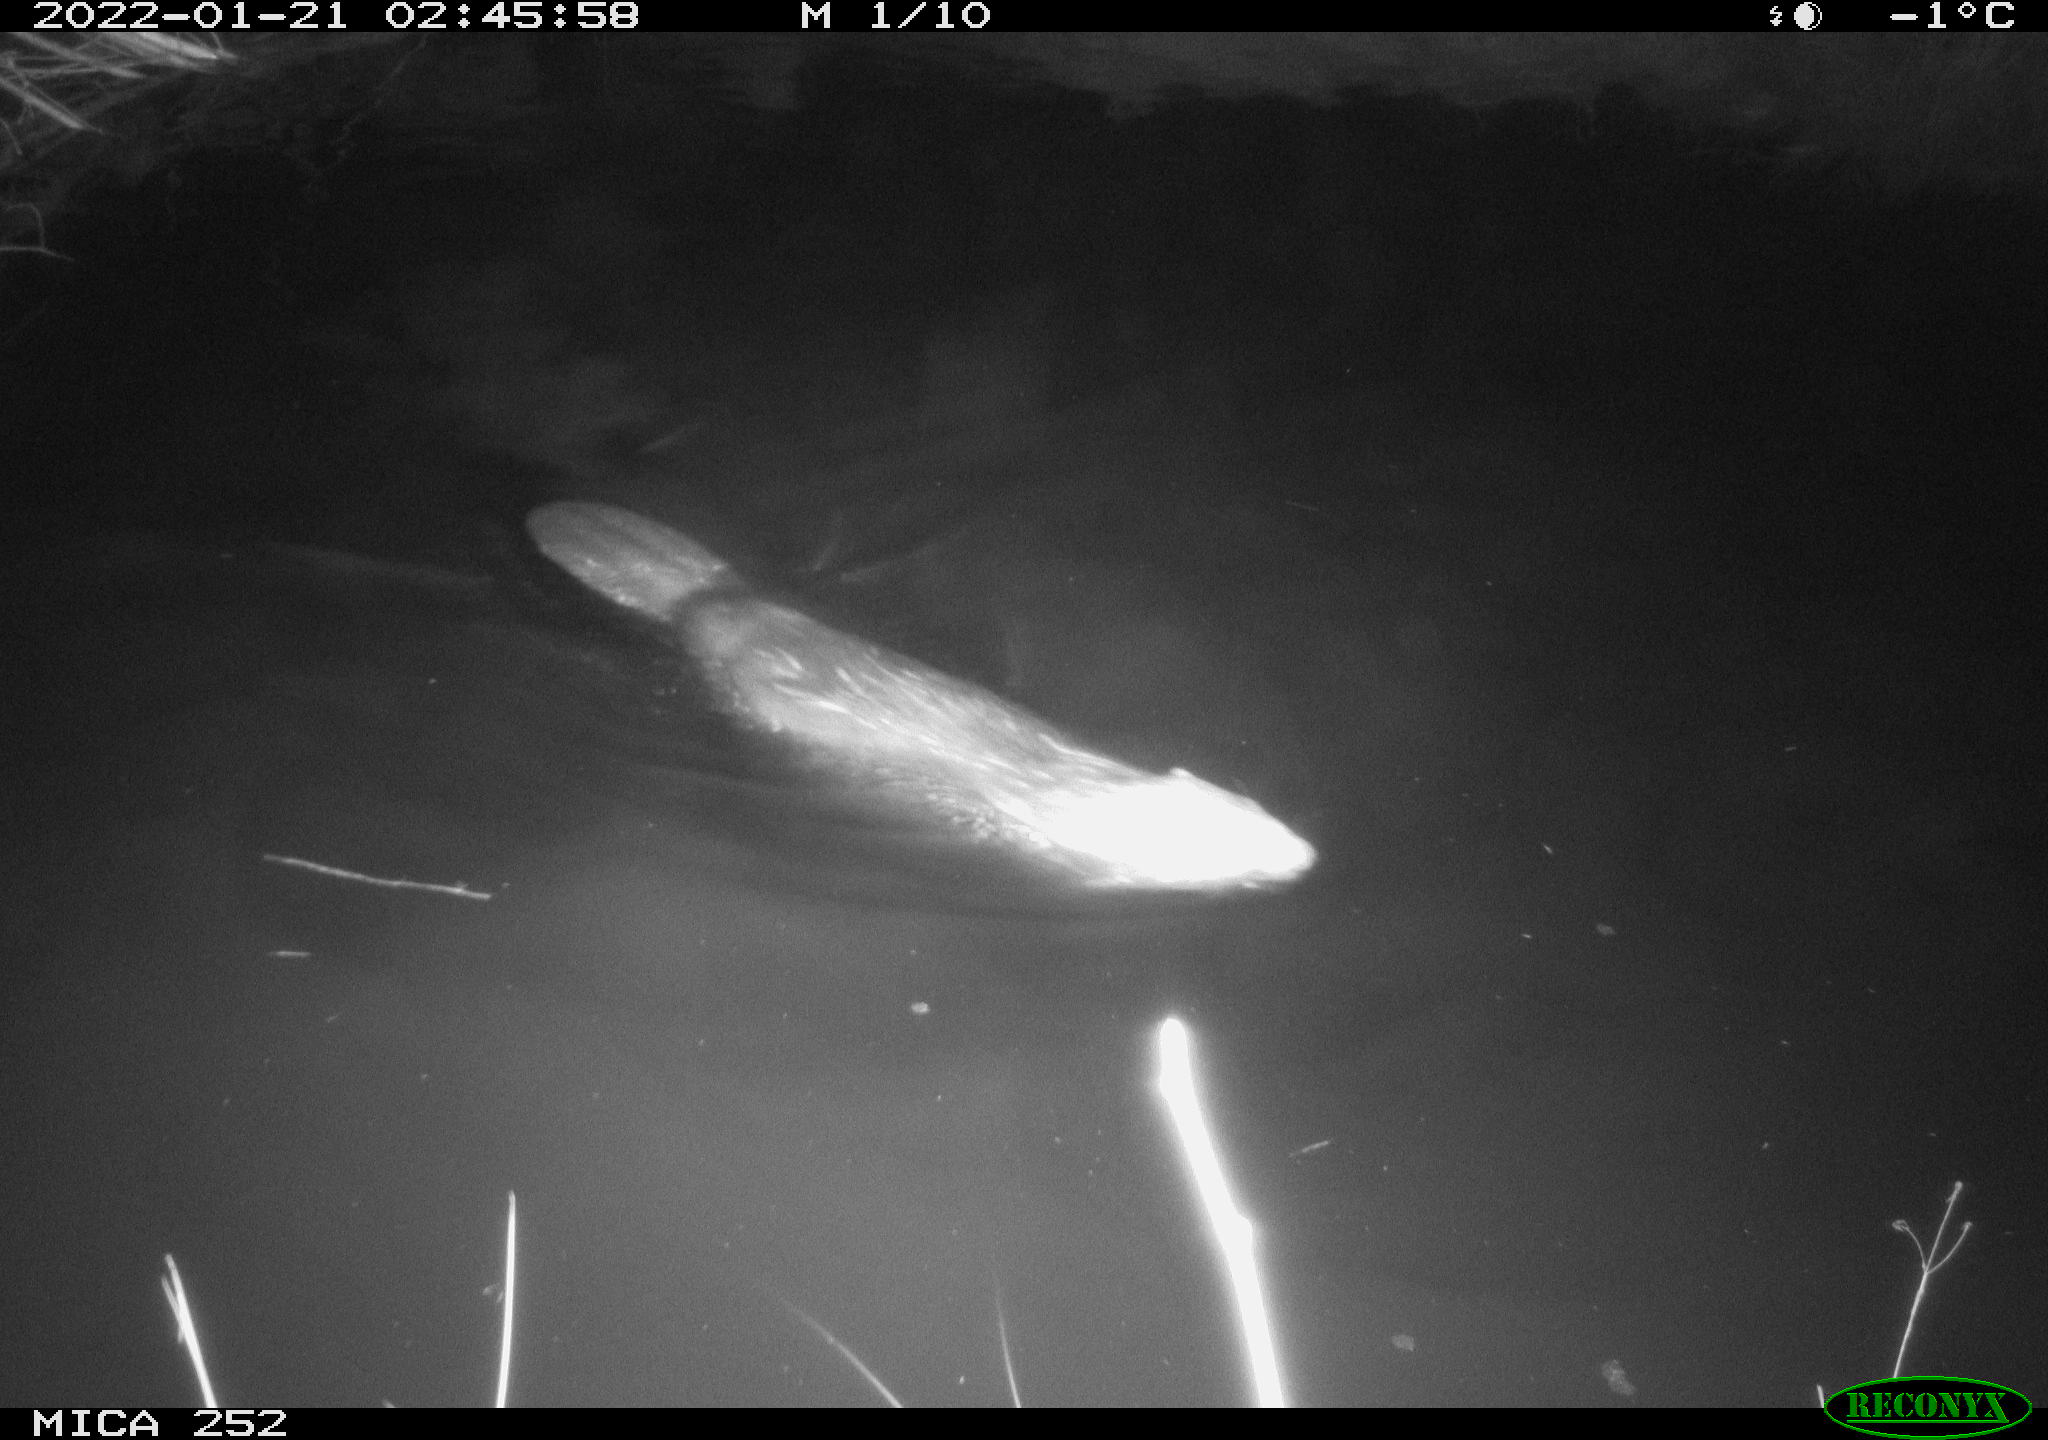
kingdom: Animalia
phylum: Chordata
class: Mammalia
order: Rodentia
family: Castoridae
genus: Castor
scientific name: Castor fiber
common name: Eurasian beaver
